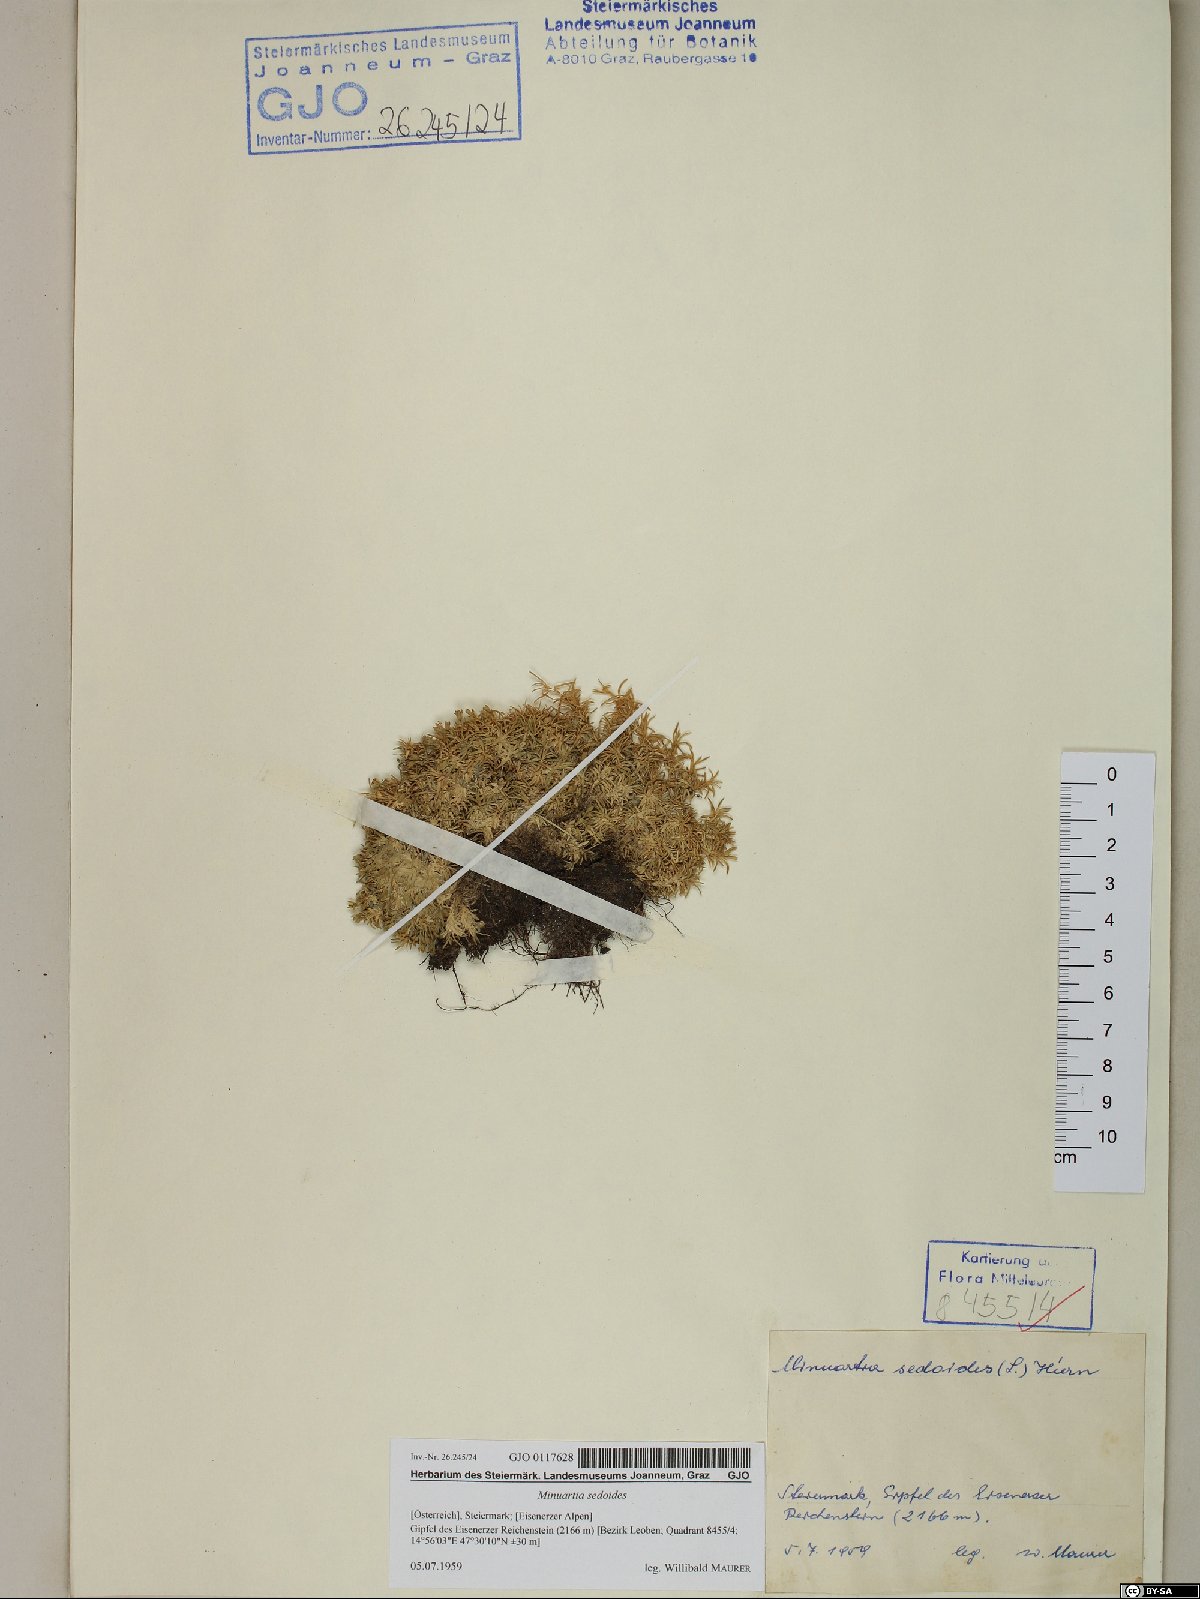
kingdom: Plantae
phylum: Tracheophyta
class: Magnoliopsida
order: Caryophyllales
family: Caryophyllaceae
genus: Cherleria
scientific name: Cherleria sedoides
